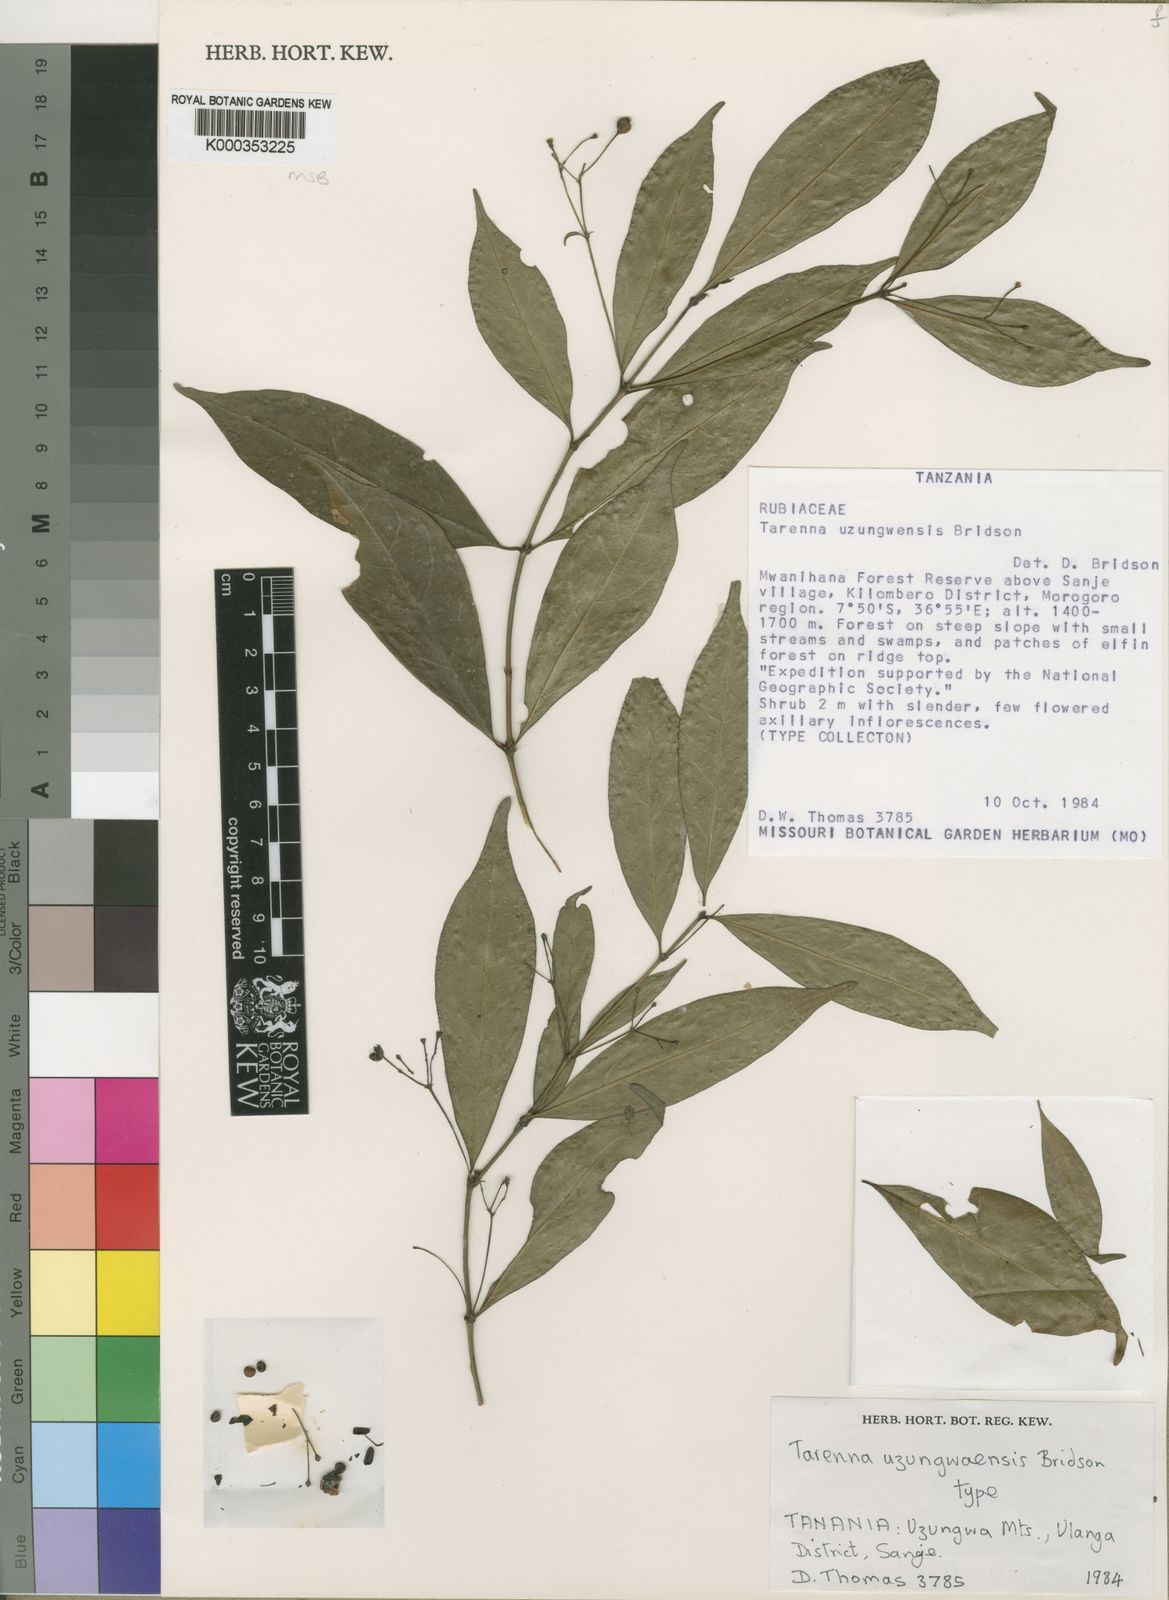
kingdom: Plantae
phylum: Tracheophyta
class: Magnoliopsida
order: Gentianales
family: Rubiaceae
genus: Tarenna
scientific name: Tarenna uzungwaensis
